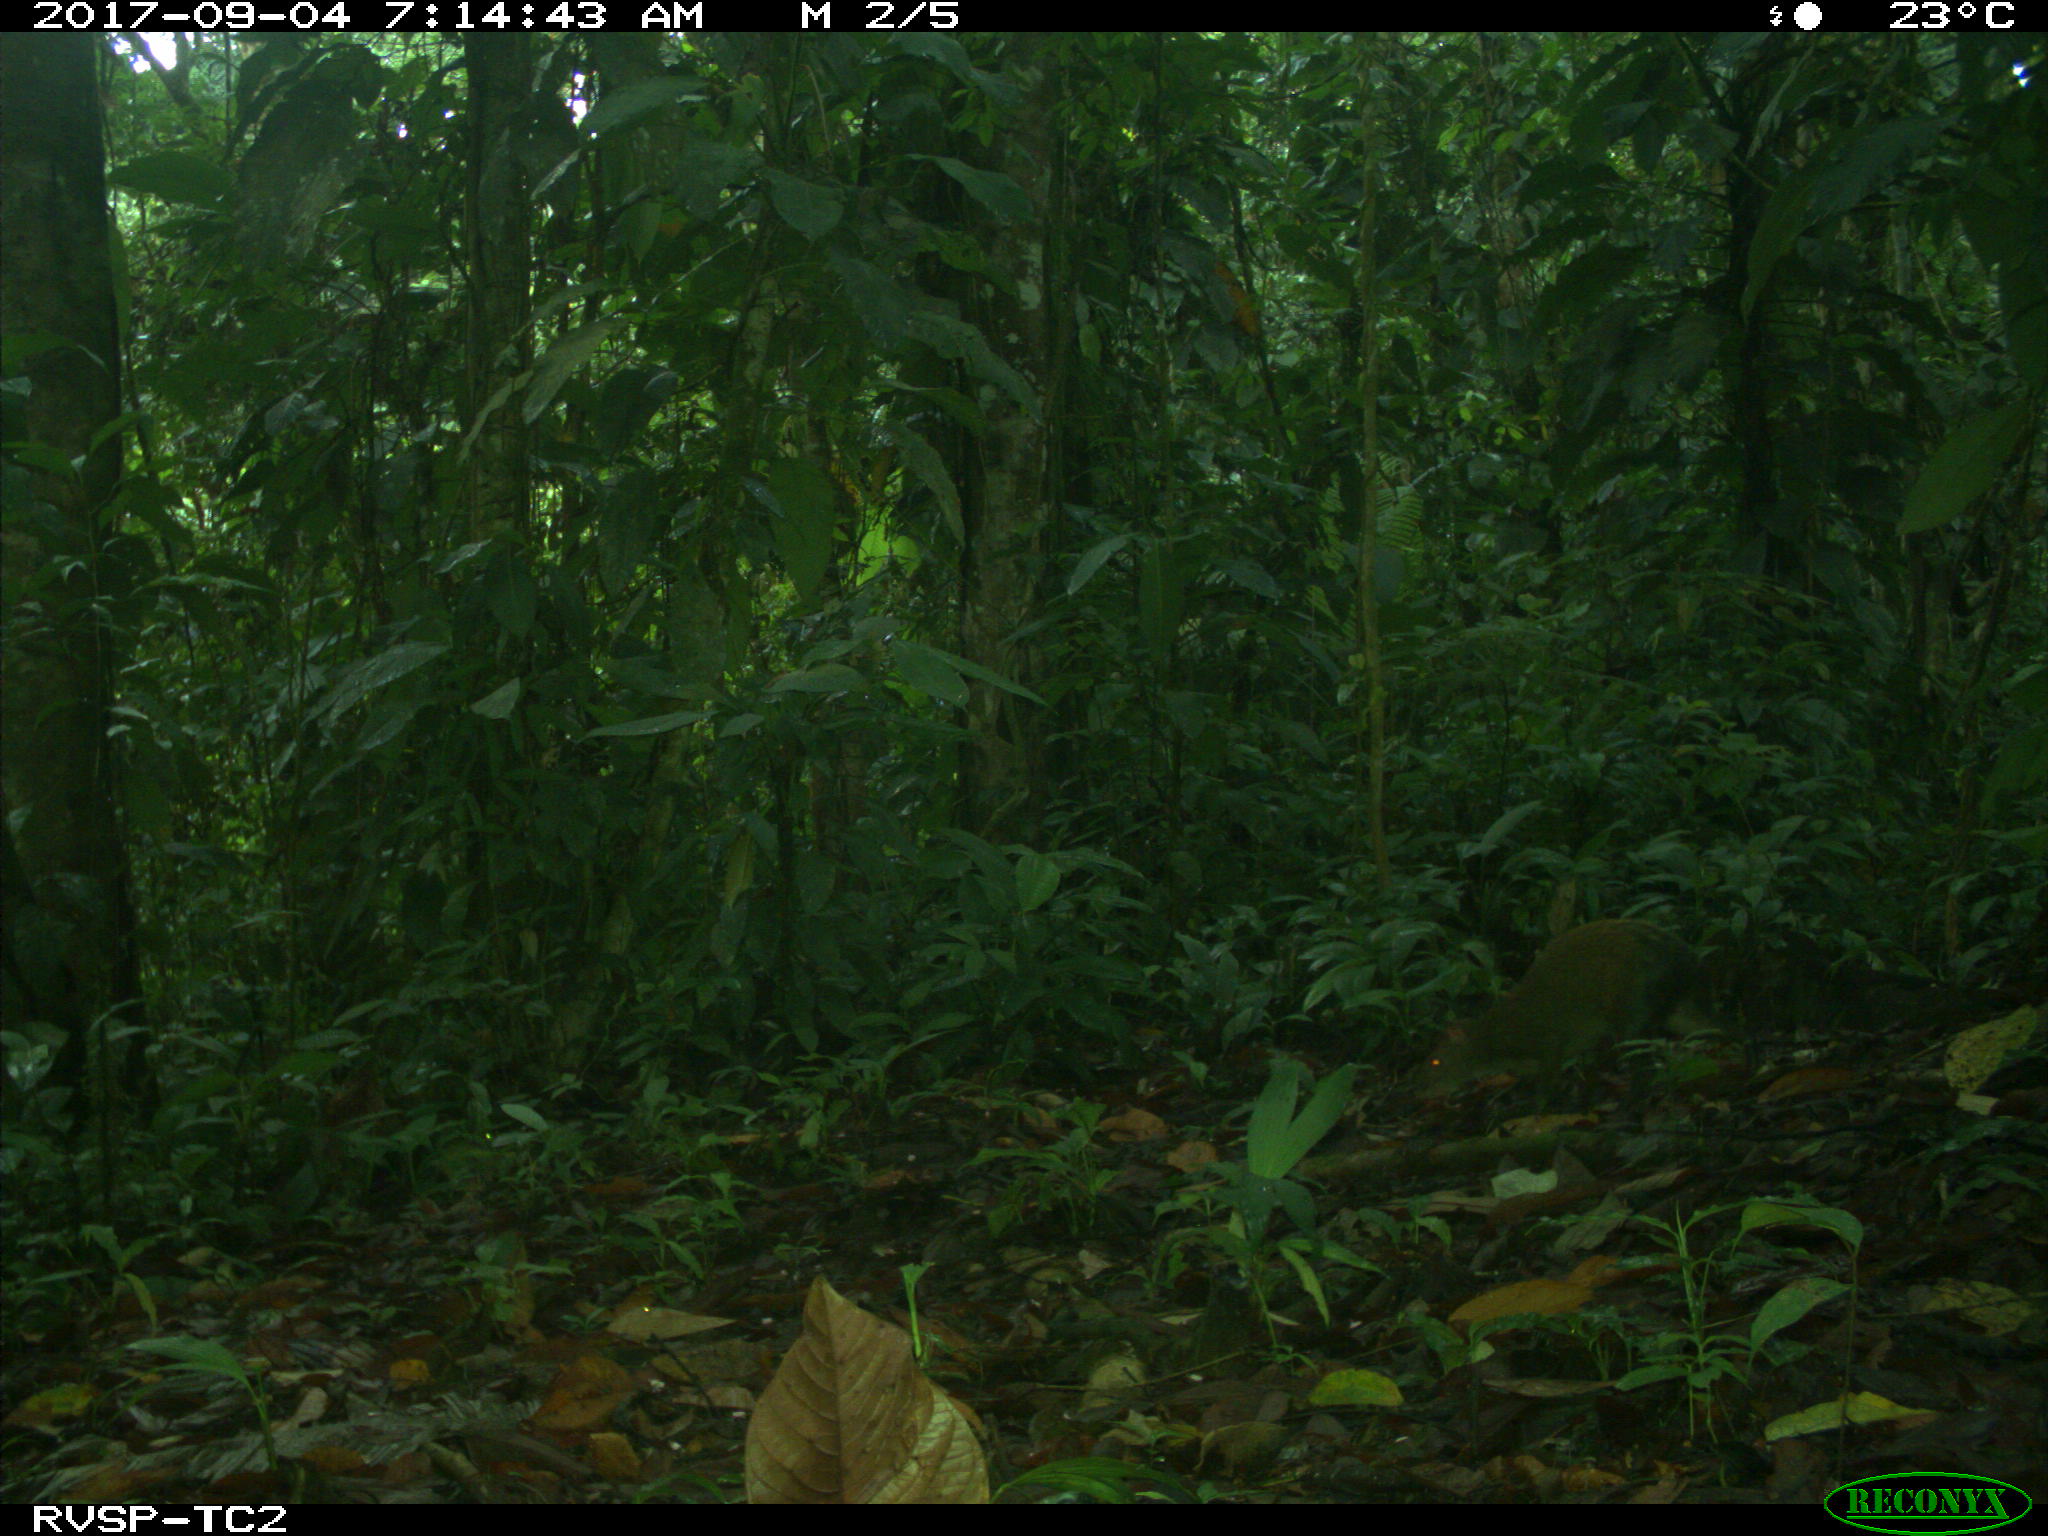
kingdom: Animalia
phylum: Chordata
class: Mammalia
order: Rodentia
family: Dasyproctidae
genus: Dasyprocta
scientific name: Dasyprocta punctata
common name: Central american agouti
